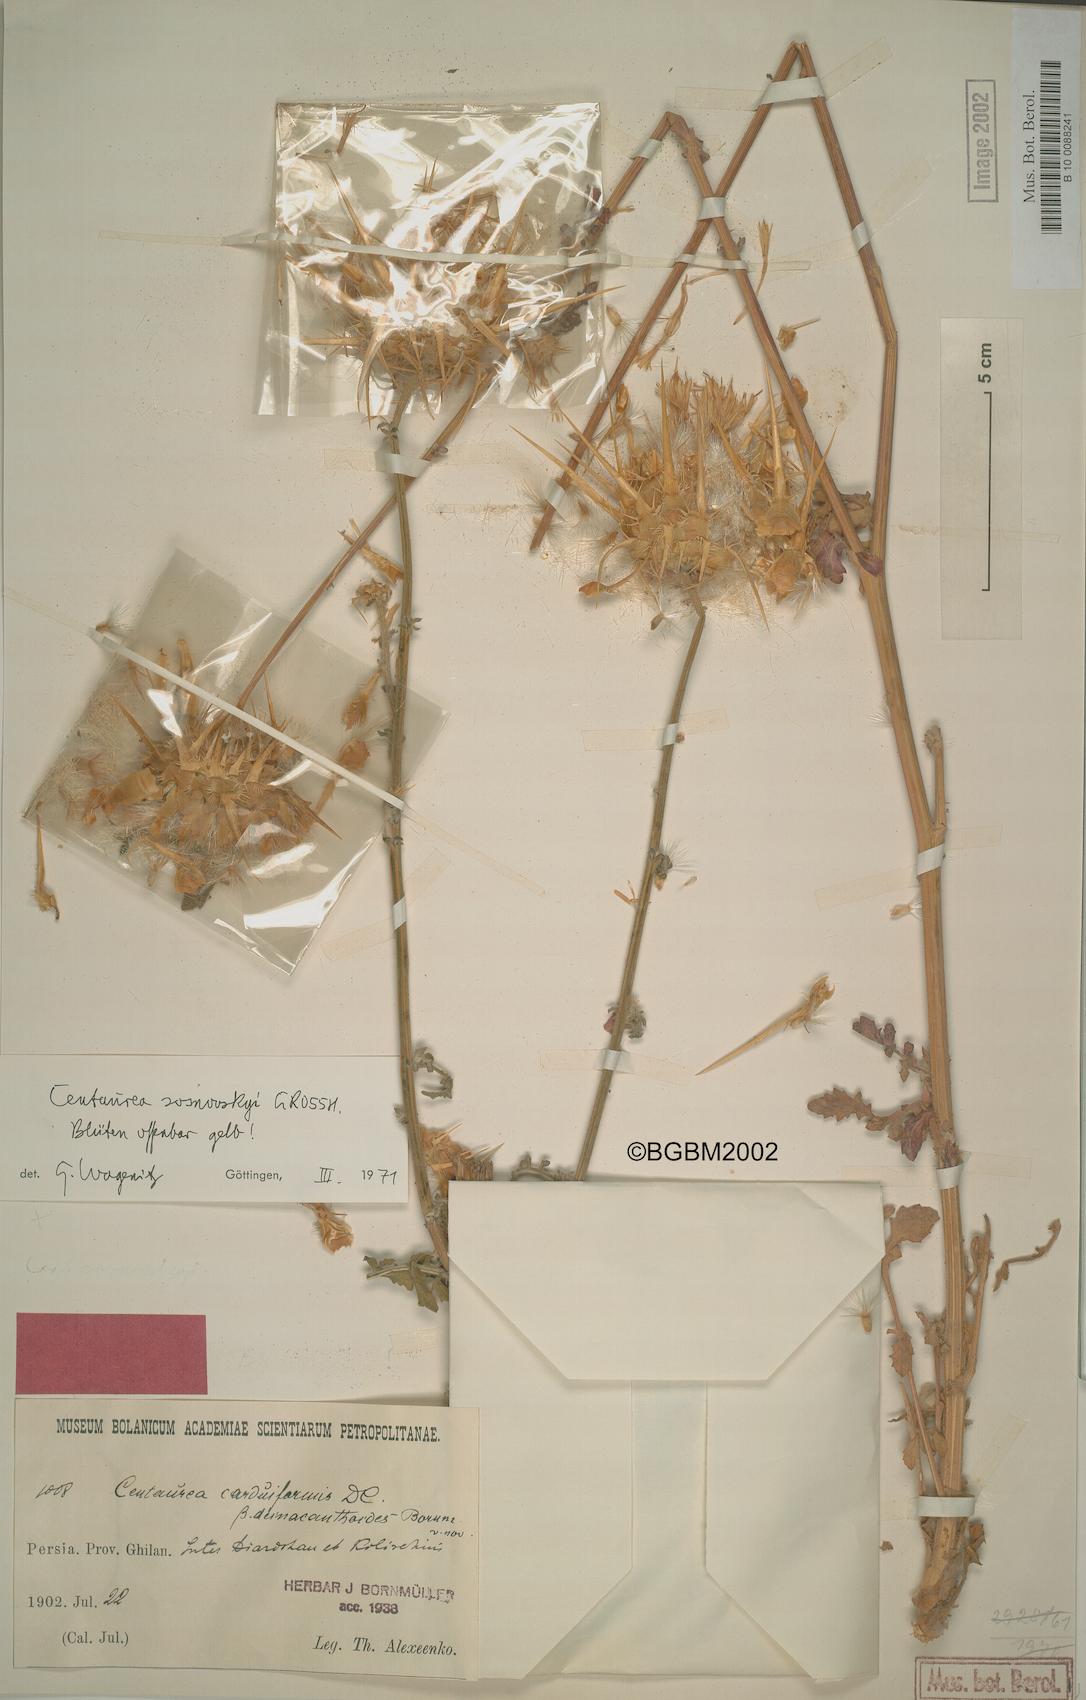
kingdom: Plantae
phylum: Tracheophyta
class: Magnoliopsida
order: Asterales
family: Asteraceae
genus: Centaurea
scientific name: Centaurea reflexa
